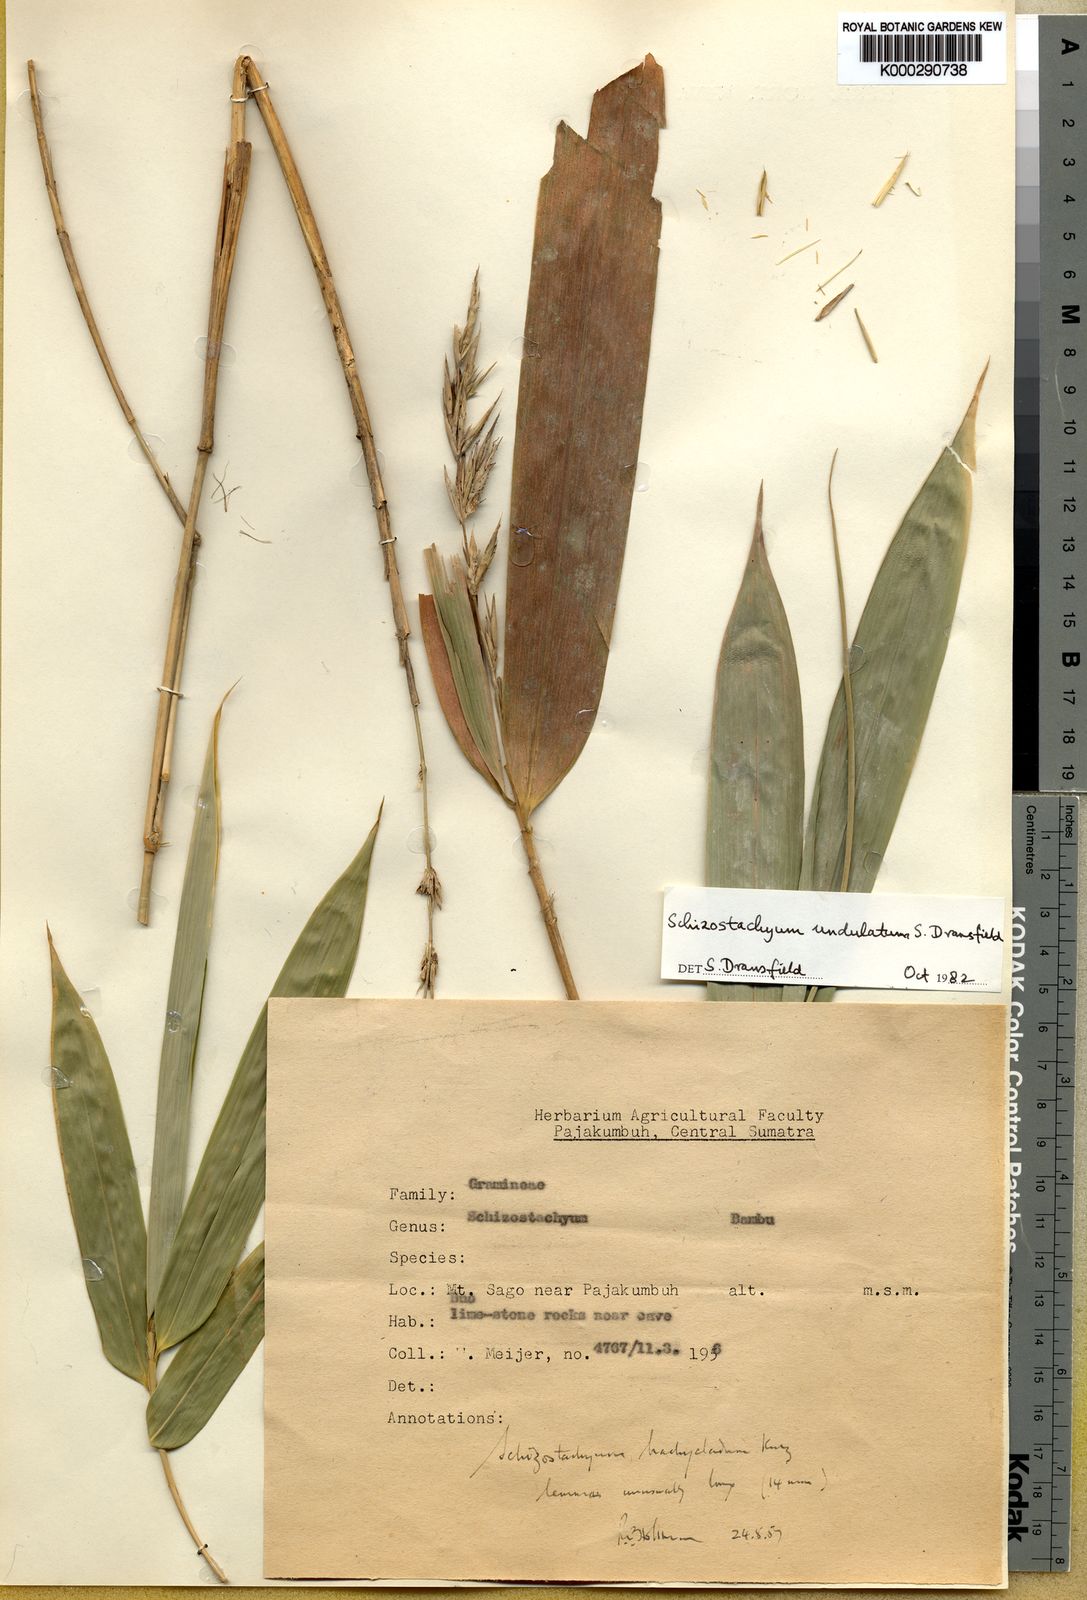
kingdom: Plantae
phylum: Tracheophyta
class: Liliopsida
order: Poales
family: Poaceae
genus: Schizostachyum
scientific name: Schizostachyum undulatum
